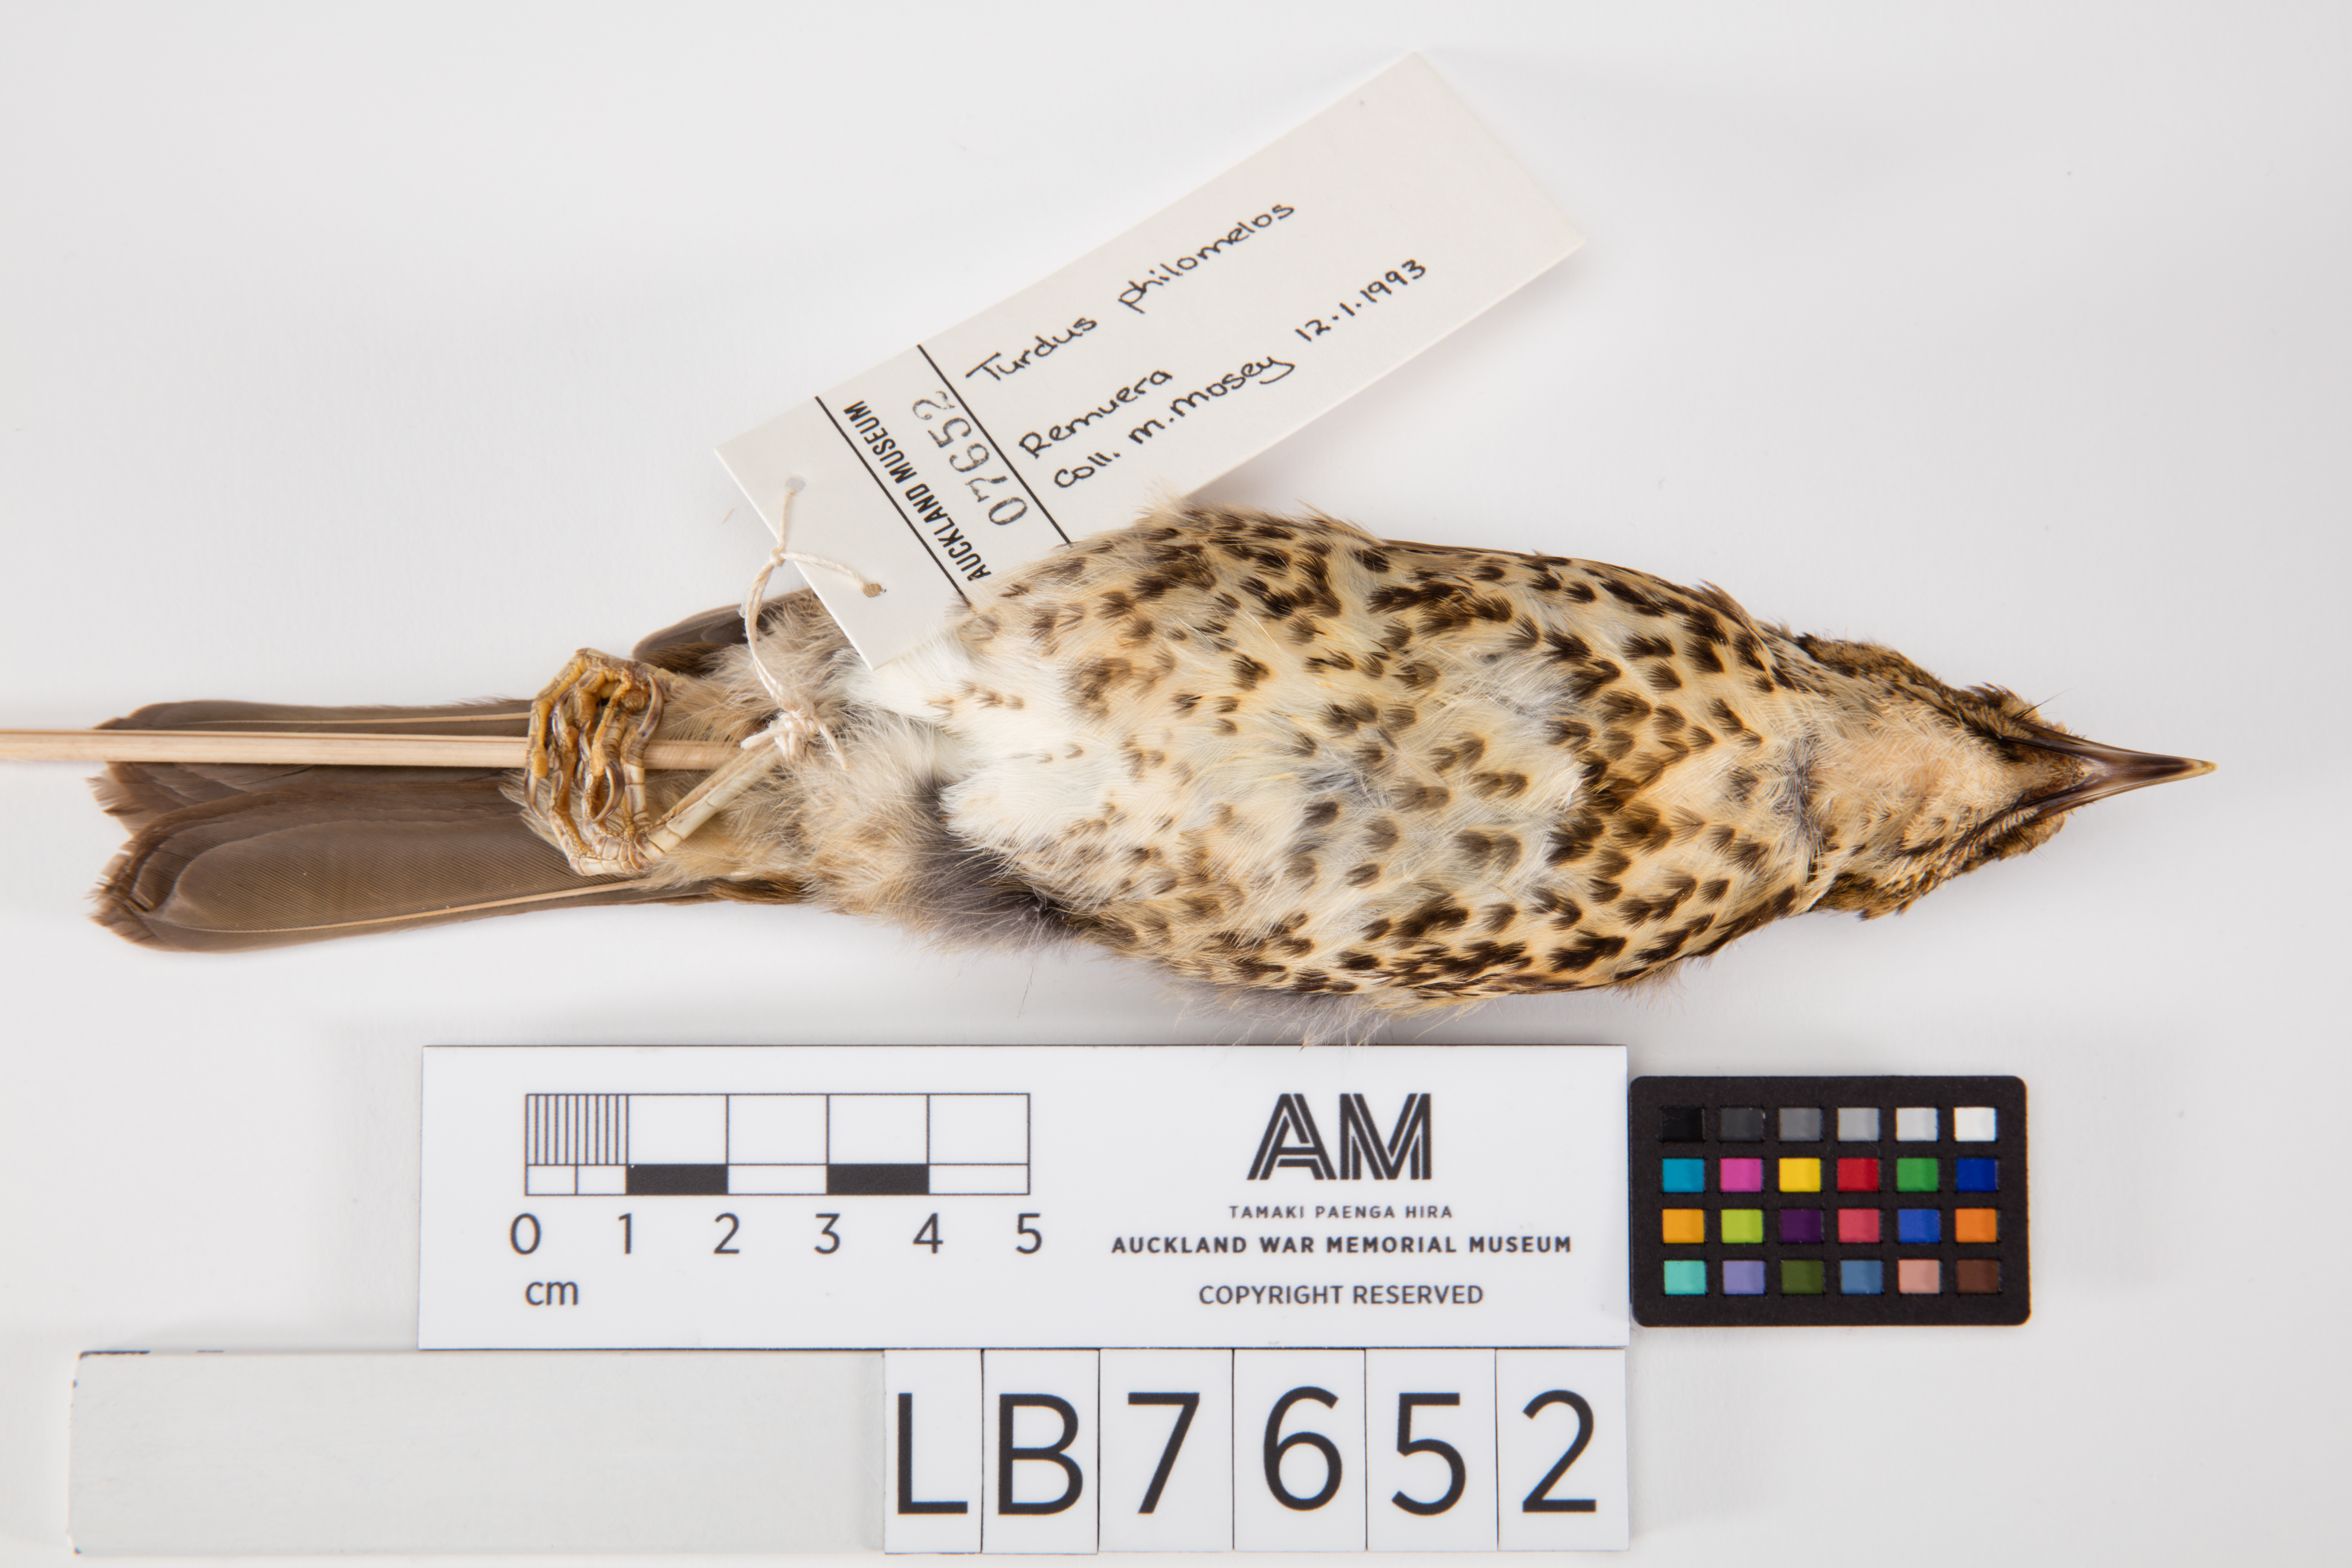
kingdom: Animalia
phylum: Chordata
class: Aves
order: Passeriformes
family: Turdidae
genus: Turdus
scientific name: Turdus philomelos
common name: Song thrush
